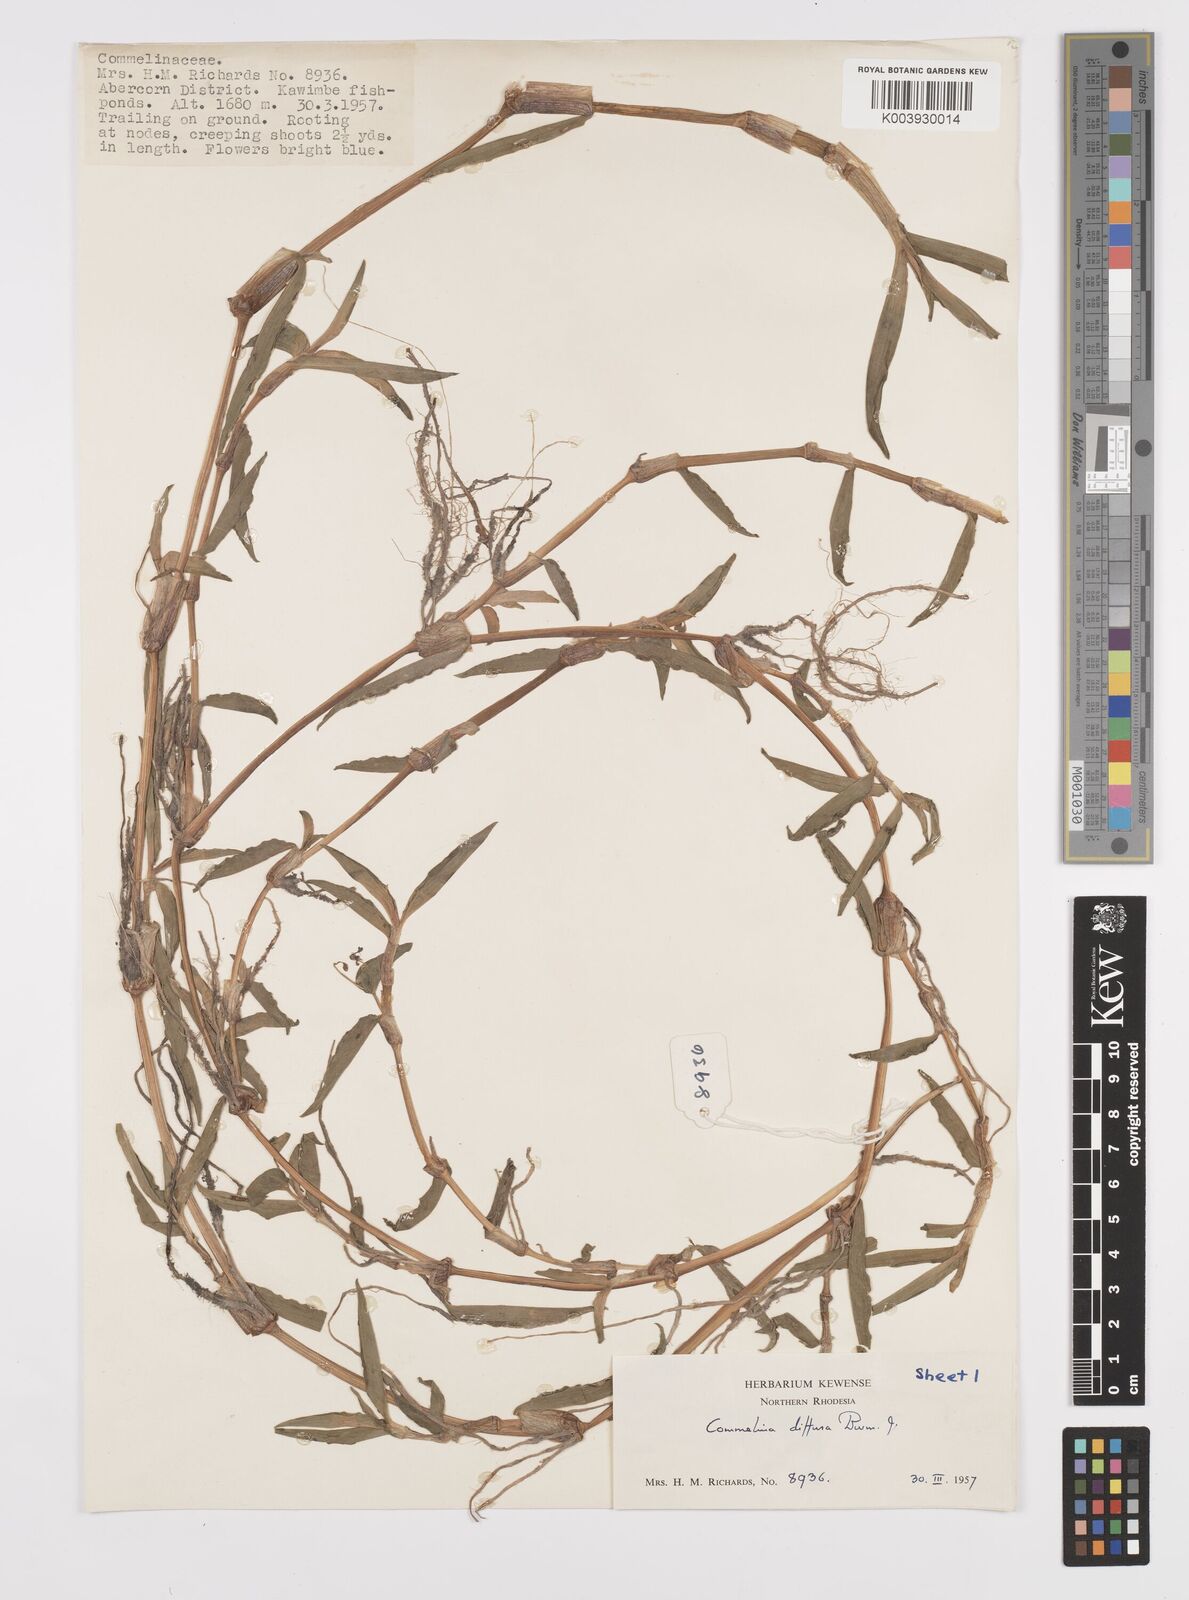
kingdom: Plantae
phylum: Tracheophyta
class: Liliopsida
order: Commelinales
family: Commelinaceae
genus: Commelina
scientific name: Commelina diffusa
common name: Climbing dayflower
